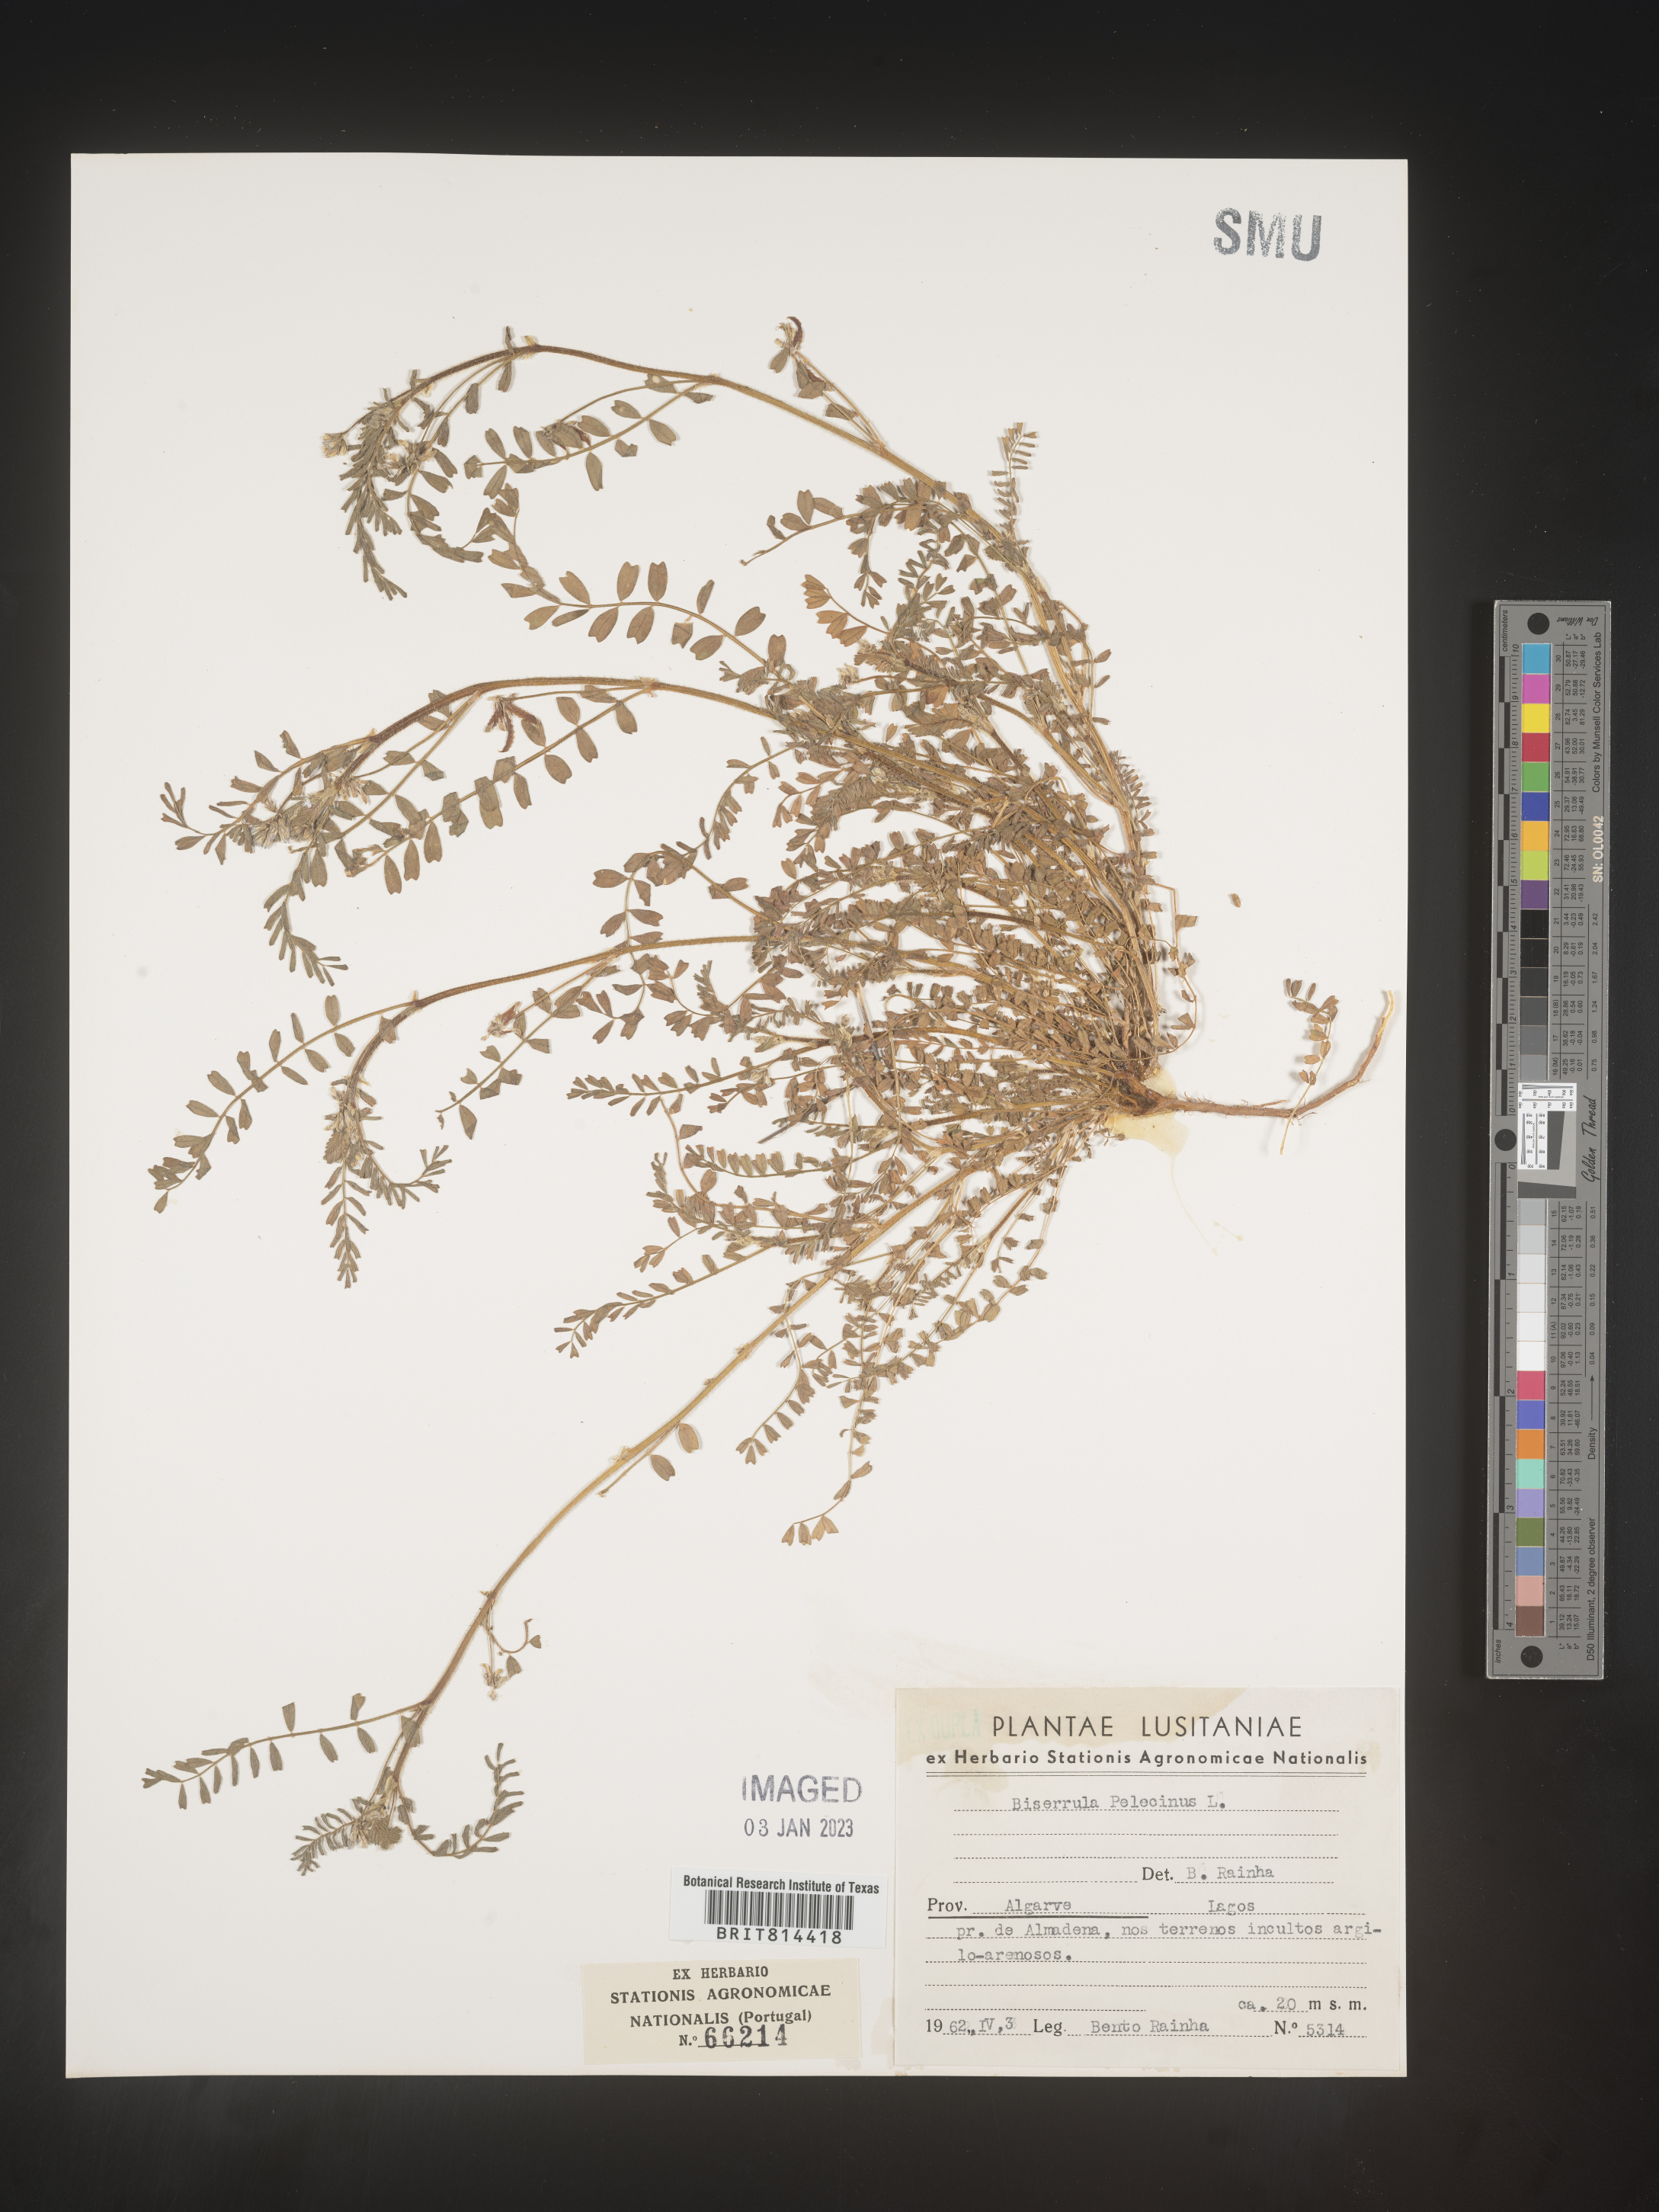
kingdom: Plantae
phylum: Tracheophyta
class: Magnoliopsida
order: Fabales
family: Fabaceae
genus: Biserrula
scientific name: Biserrula
